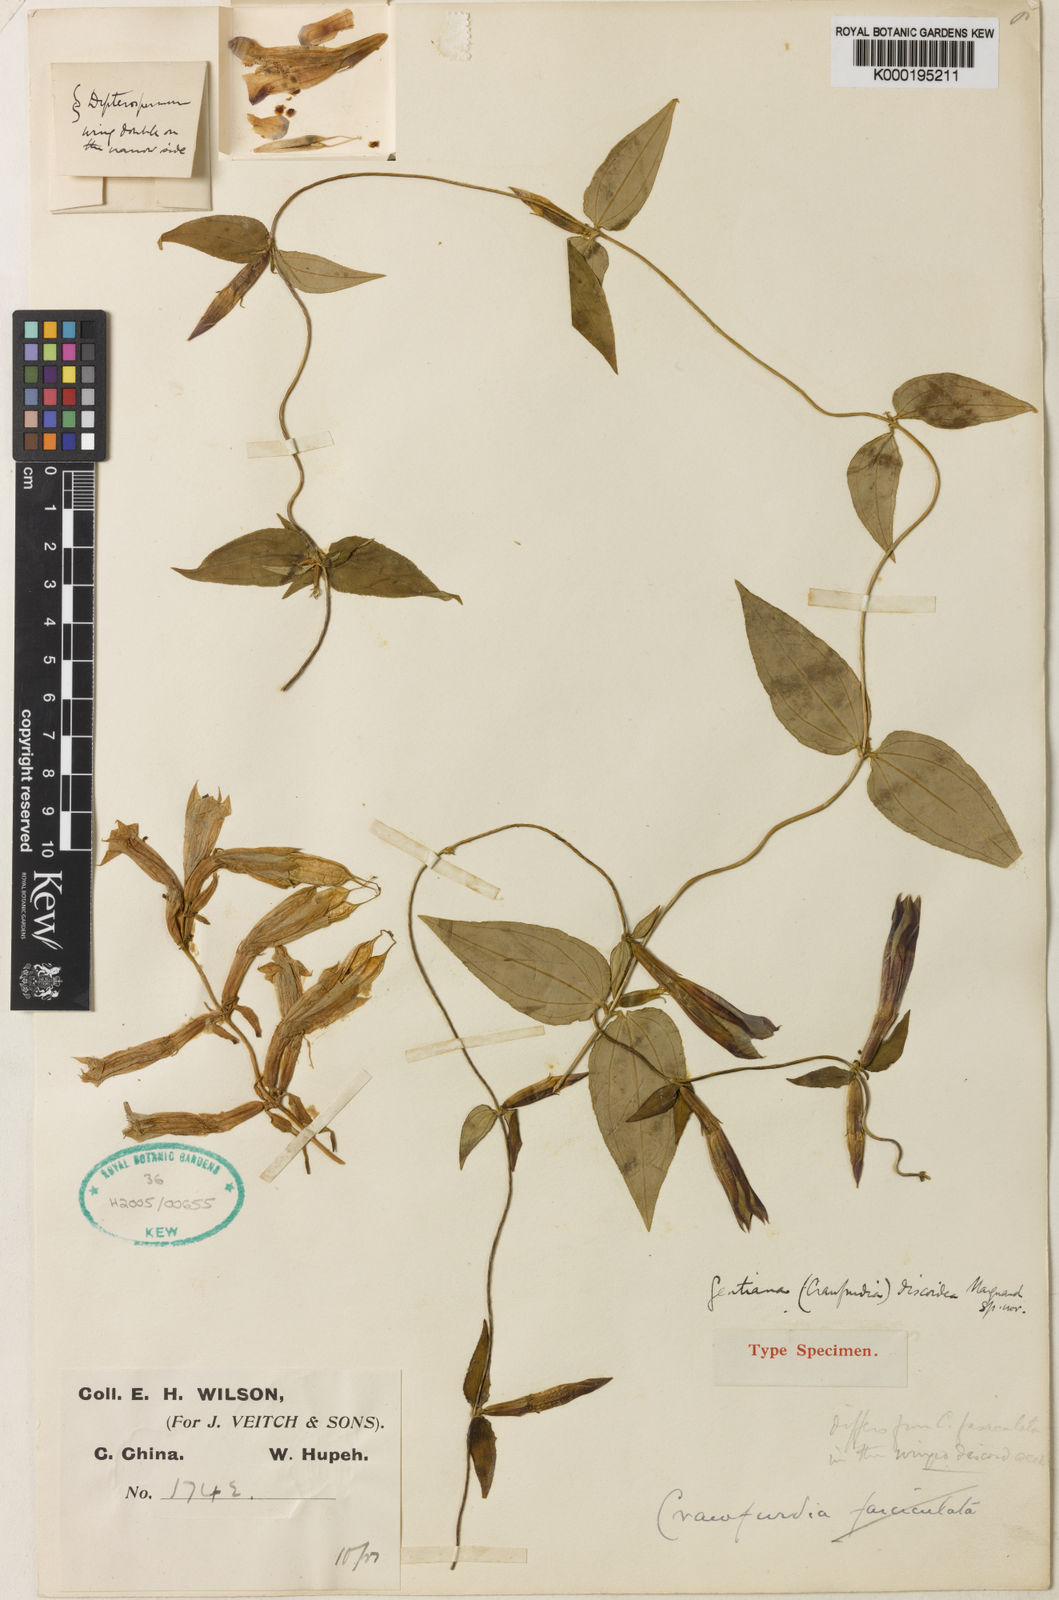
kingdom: Plantae
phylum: Tracheophyta
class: Magnoliopsida
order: Gentianales
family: Gentianaceae
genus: Tripterospermum
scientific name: Tripterospermum discoideum
